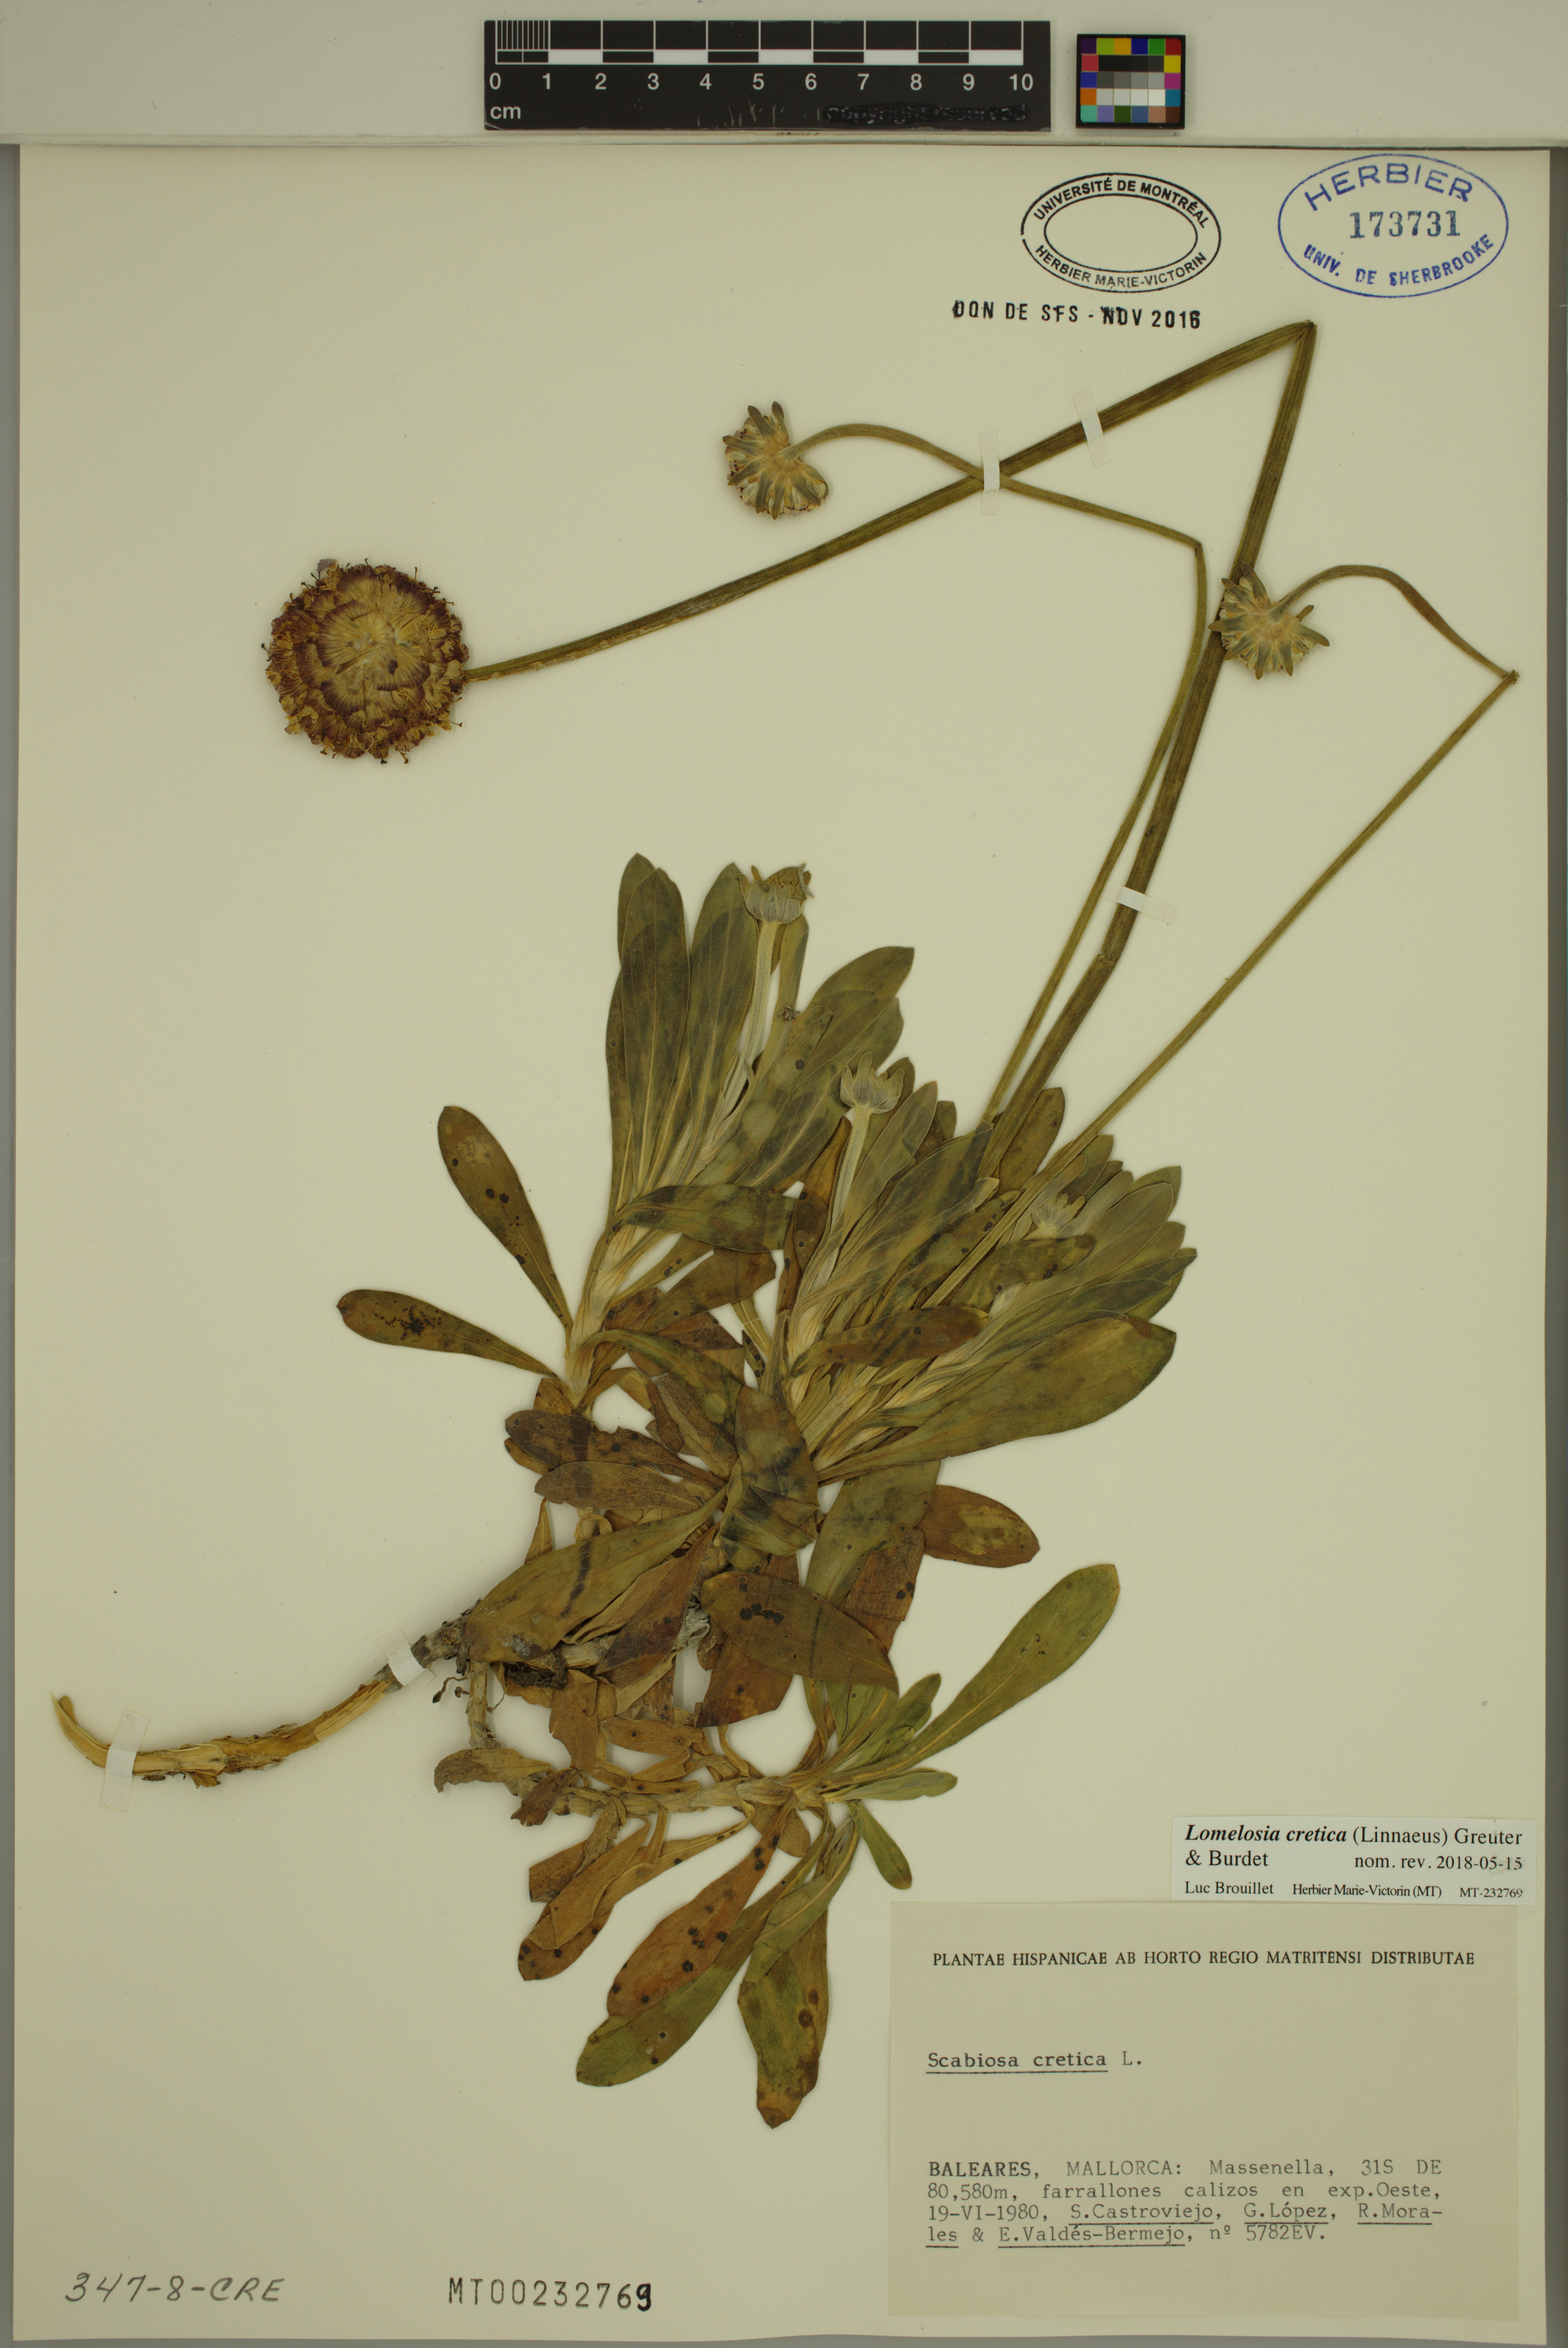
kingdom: Plantae
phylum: Tracheophyta
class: Magnoliopsida
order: Dipsacales
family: Caprifoliaceae
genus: Lomelosia
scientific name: Lomelosia cretica
